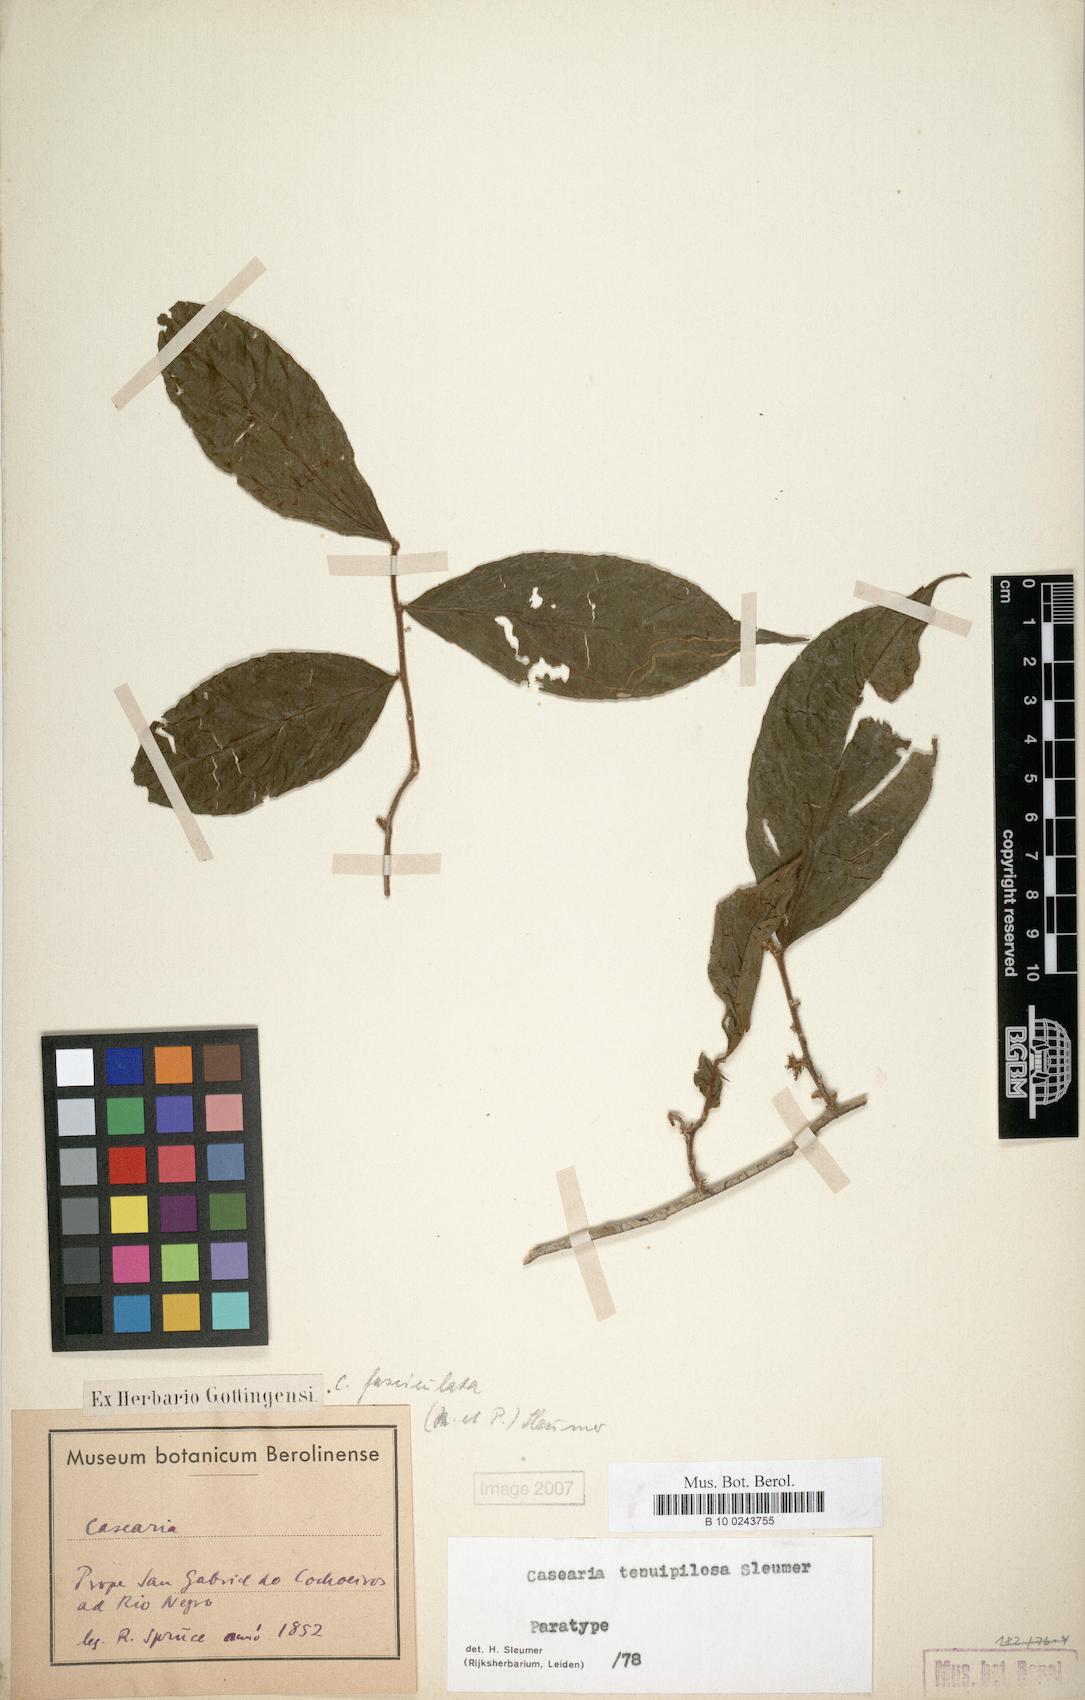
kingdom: Plantae
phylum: Tracheophyta
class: Magnoliopsida
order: Malpighiales
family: Salicaceae
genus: Casearia
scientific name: Casearia tenuipilosa
